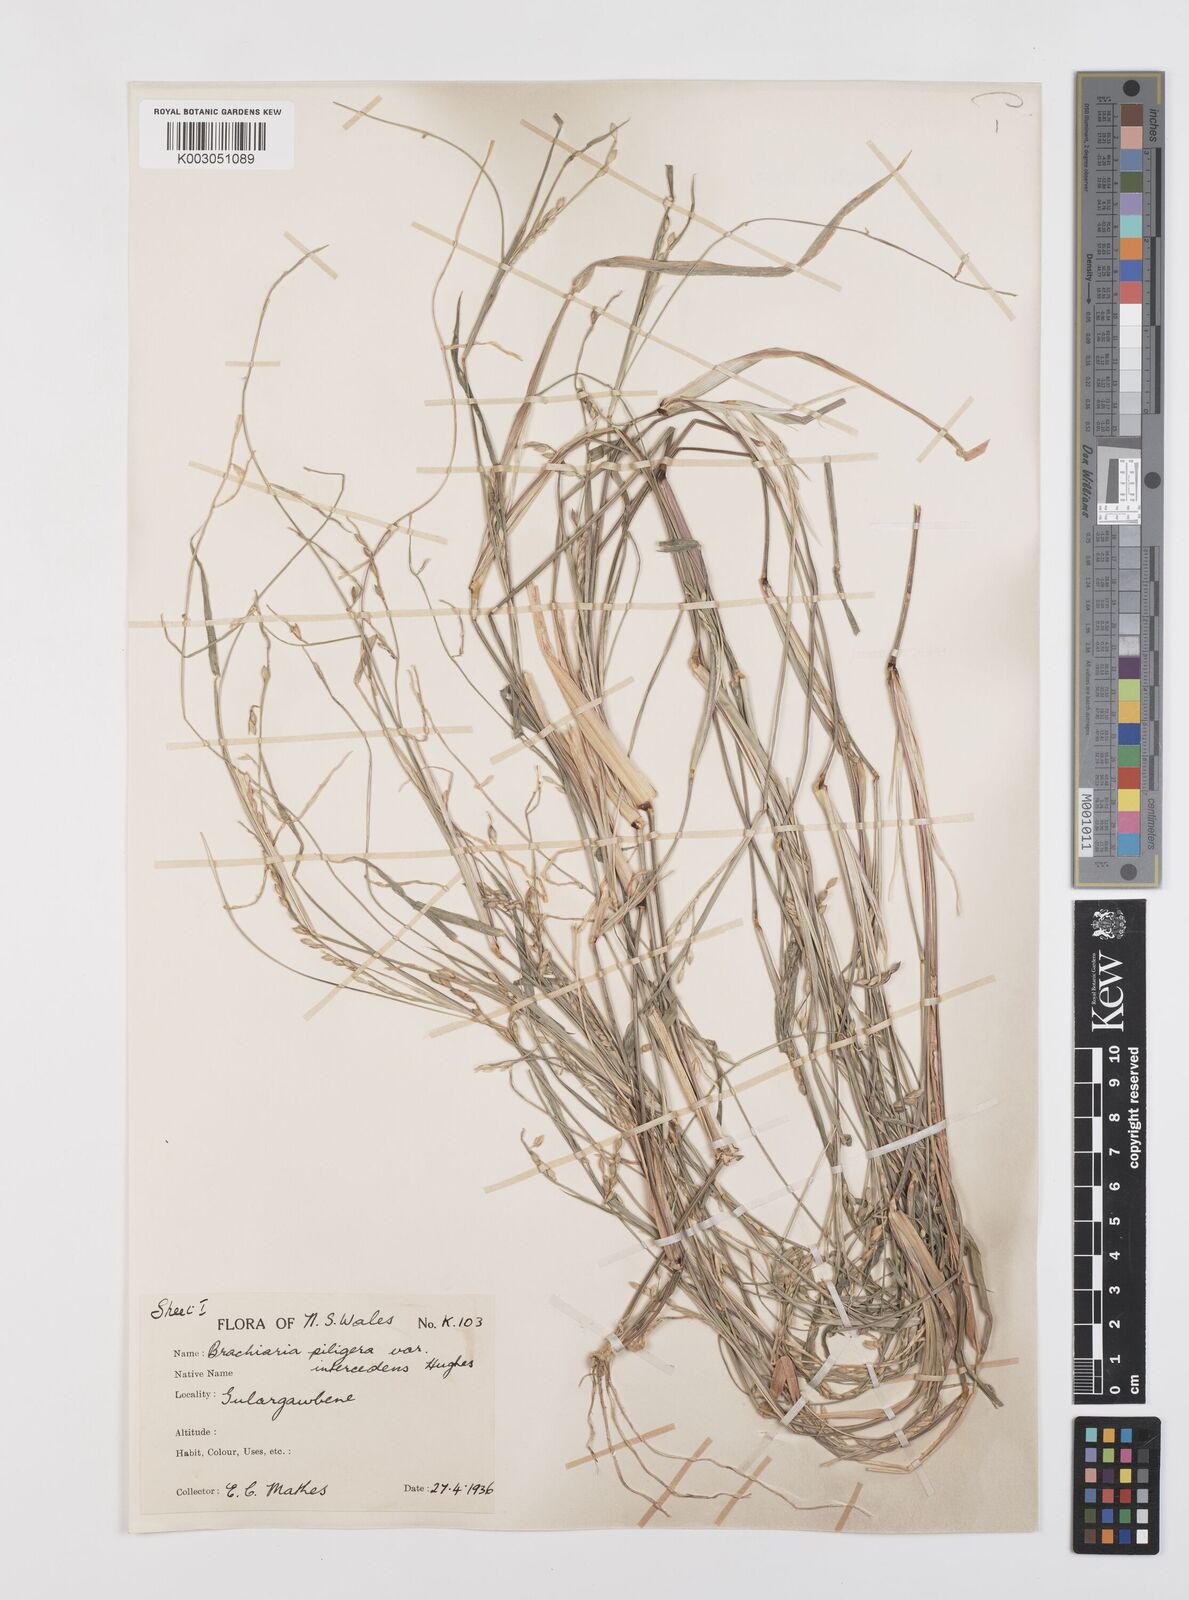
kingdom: Plantae
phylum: Tracheophyta
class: Liliopsida
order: Poales
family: Poaceae
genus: Urochloa
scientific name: Urochloa piligera
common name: Wattle signalgrass
